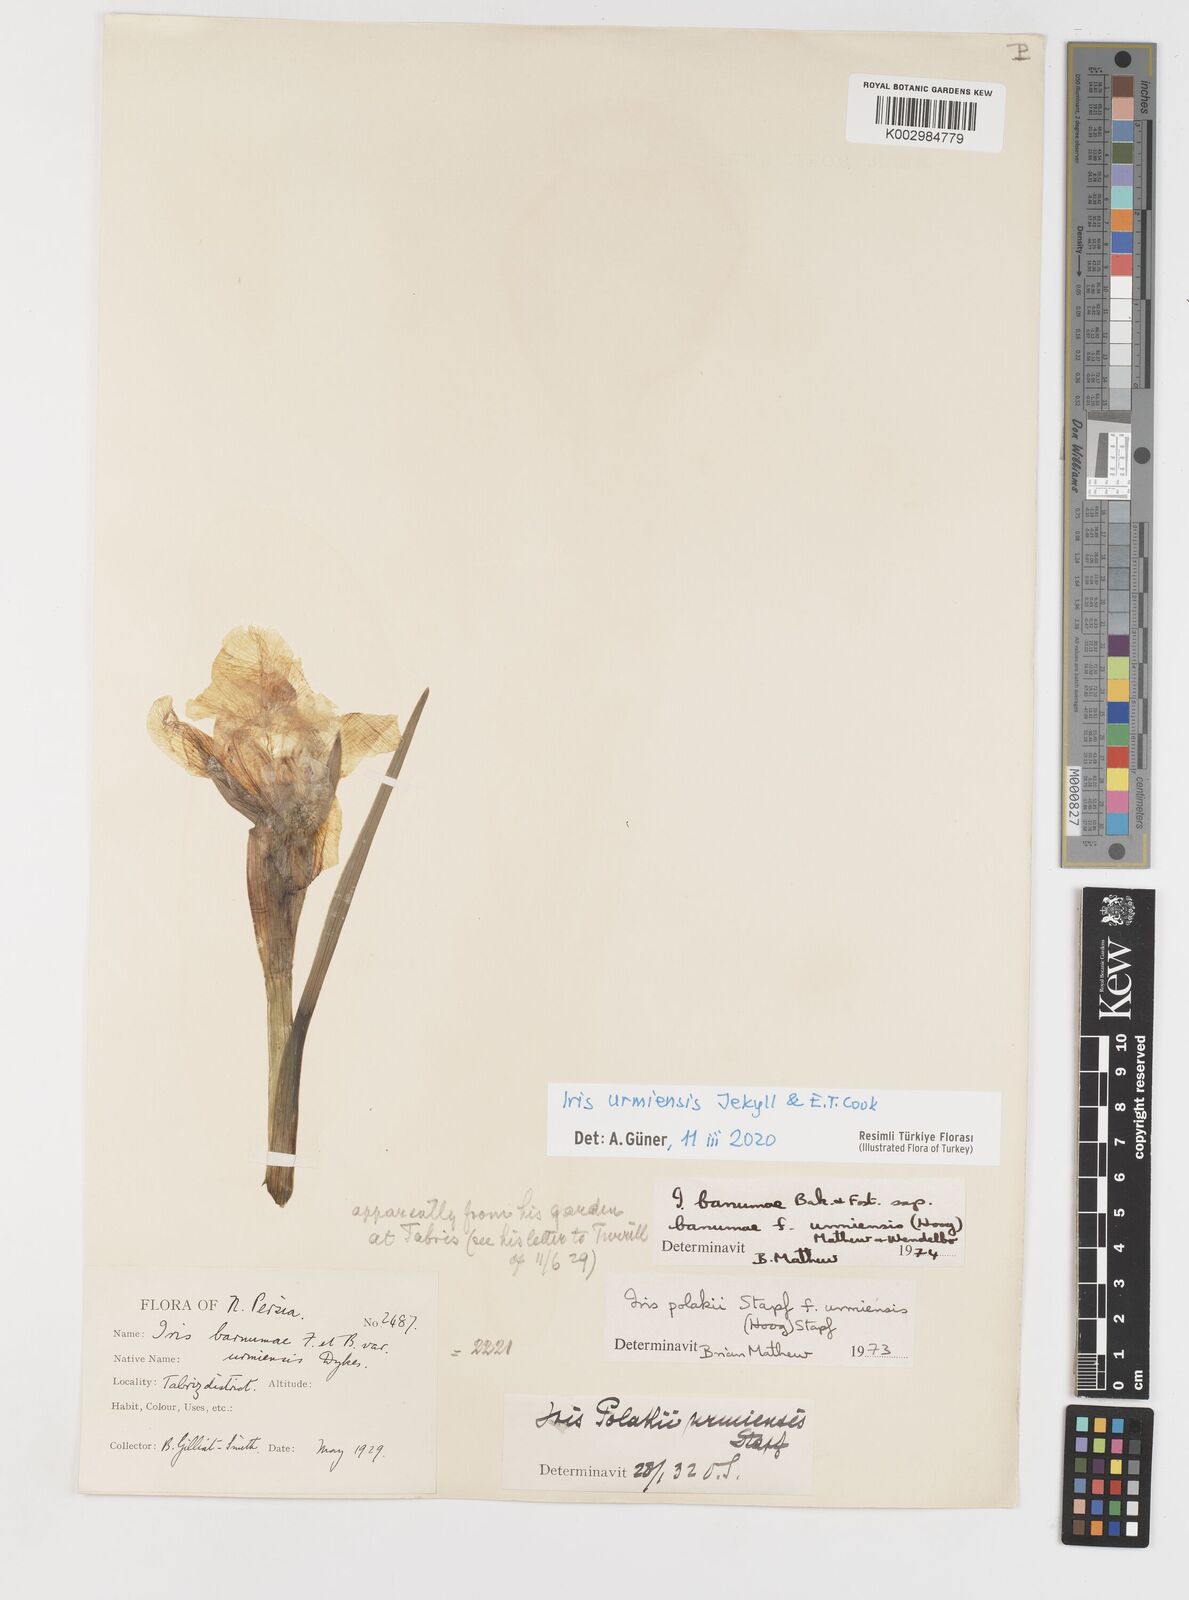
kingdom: Plantae
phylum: Tracheophyta
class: Liliopsida
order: Asparagales
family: Iridaceae
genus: Iris
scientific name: Iris urmiensis
